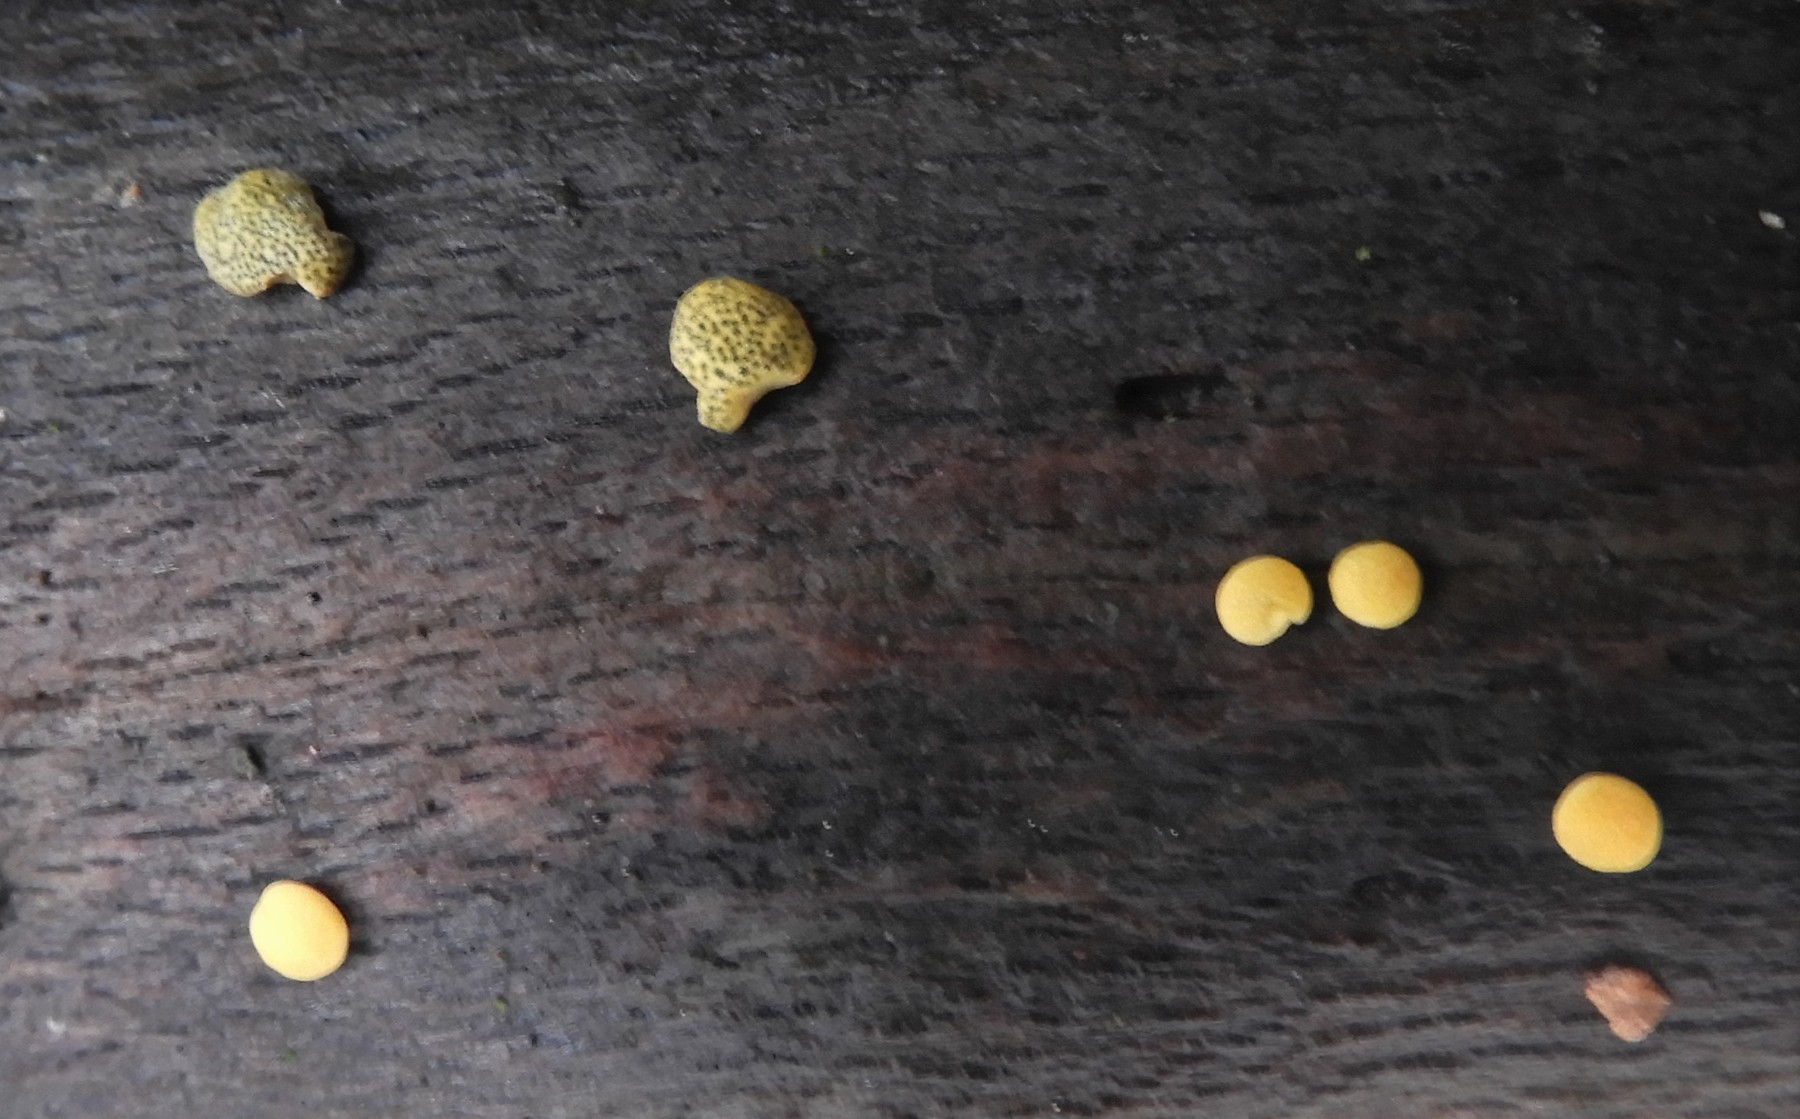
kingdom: Fungi
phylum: Ascomycota
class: Sordariomycetes
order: Hypocreales
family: Hypocreaceae
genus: Trichoderma
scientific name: Trichoderma aureoviride
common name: æggegul kødkerne
